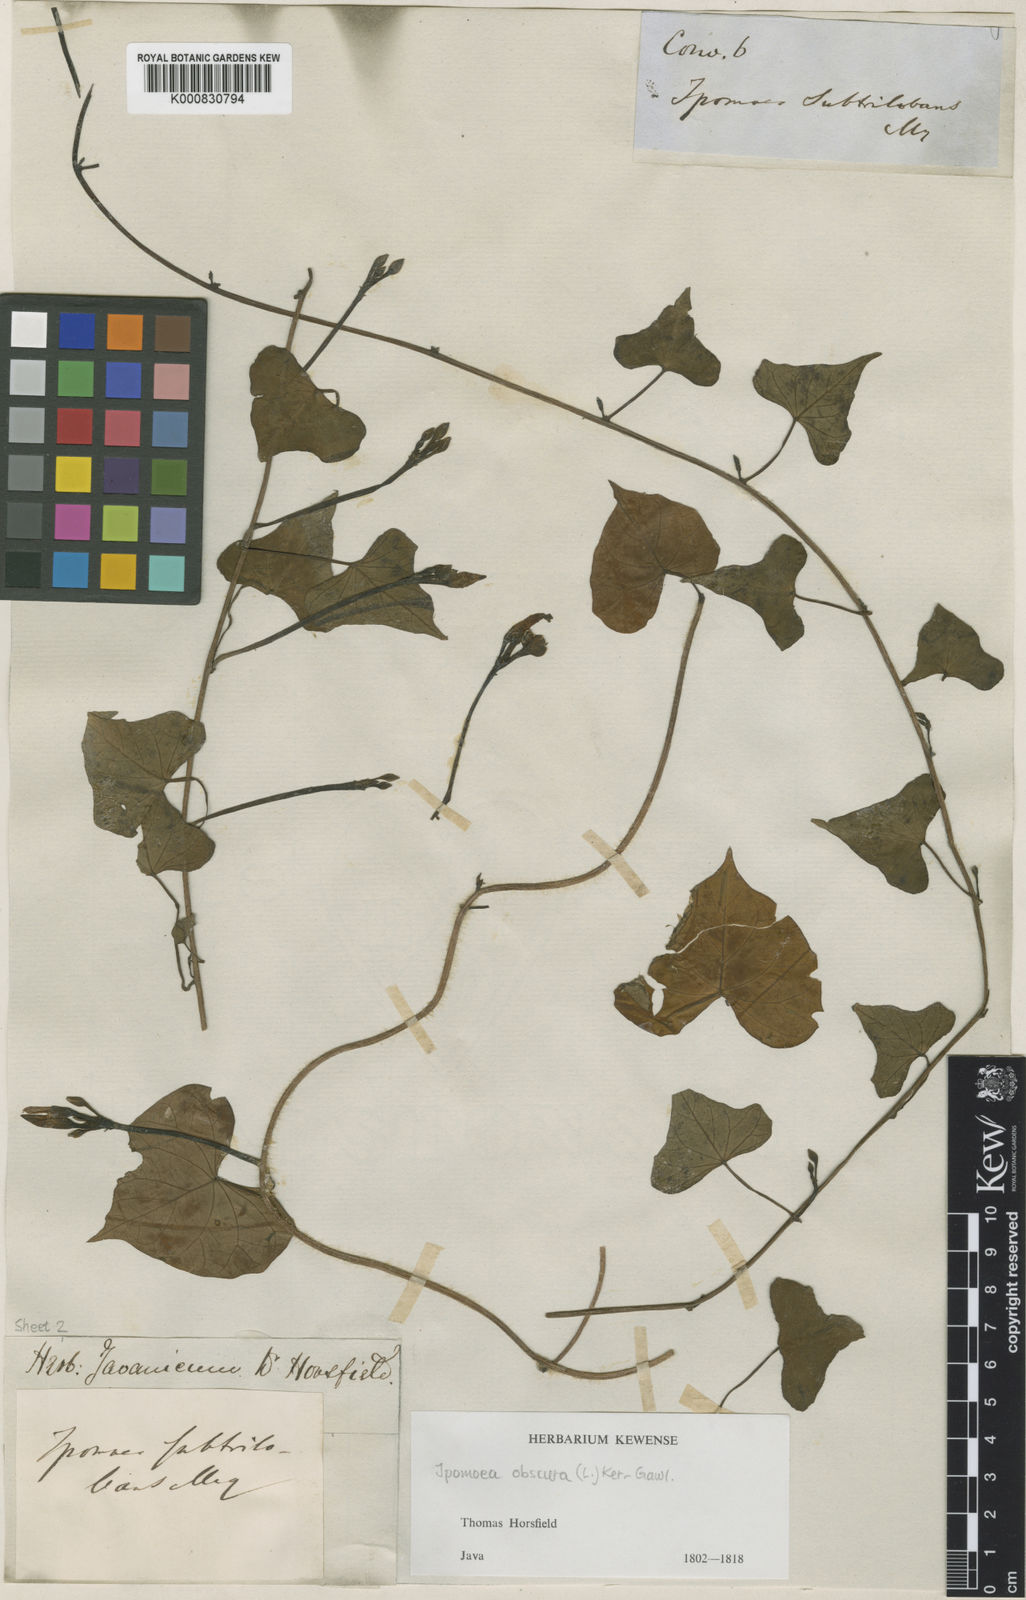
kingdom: Plantae
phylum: Tracheophyta
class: Magnoliopsida
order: Solanales
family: Convolvulaceae
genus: Ipomoea
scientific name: Ipomoea obscura
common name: Obscure morning-glory
